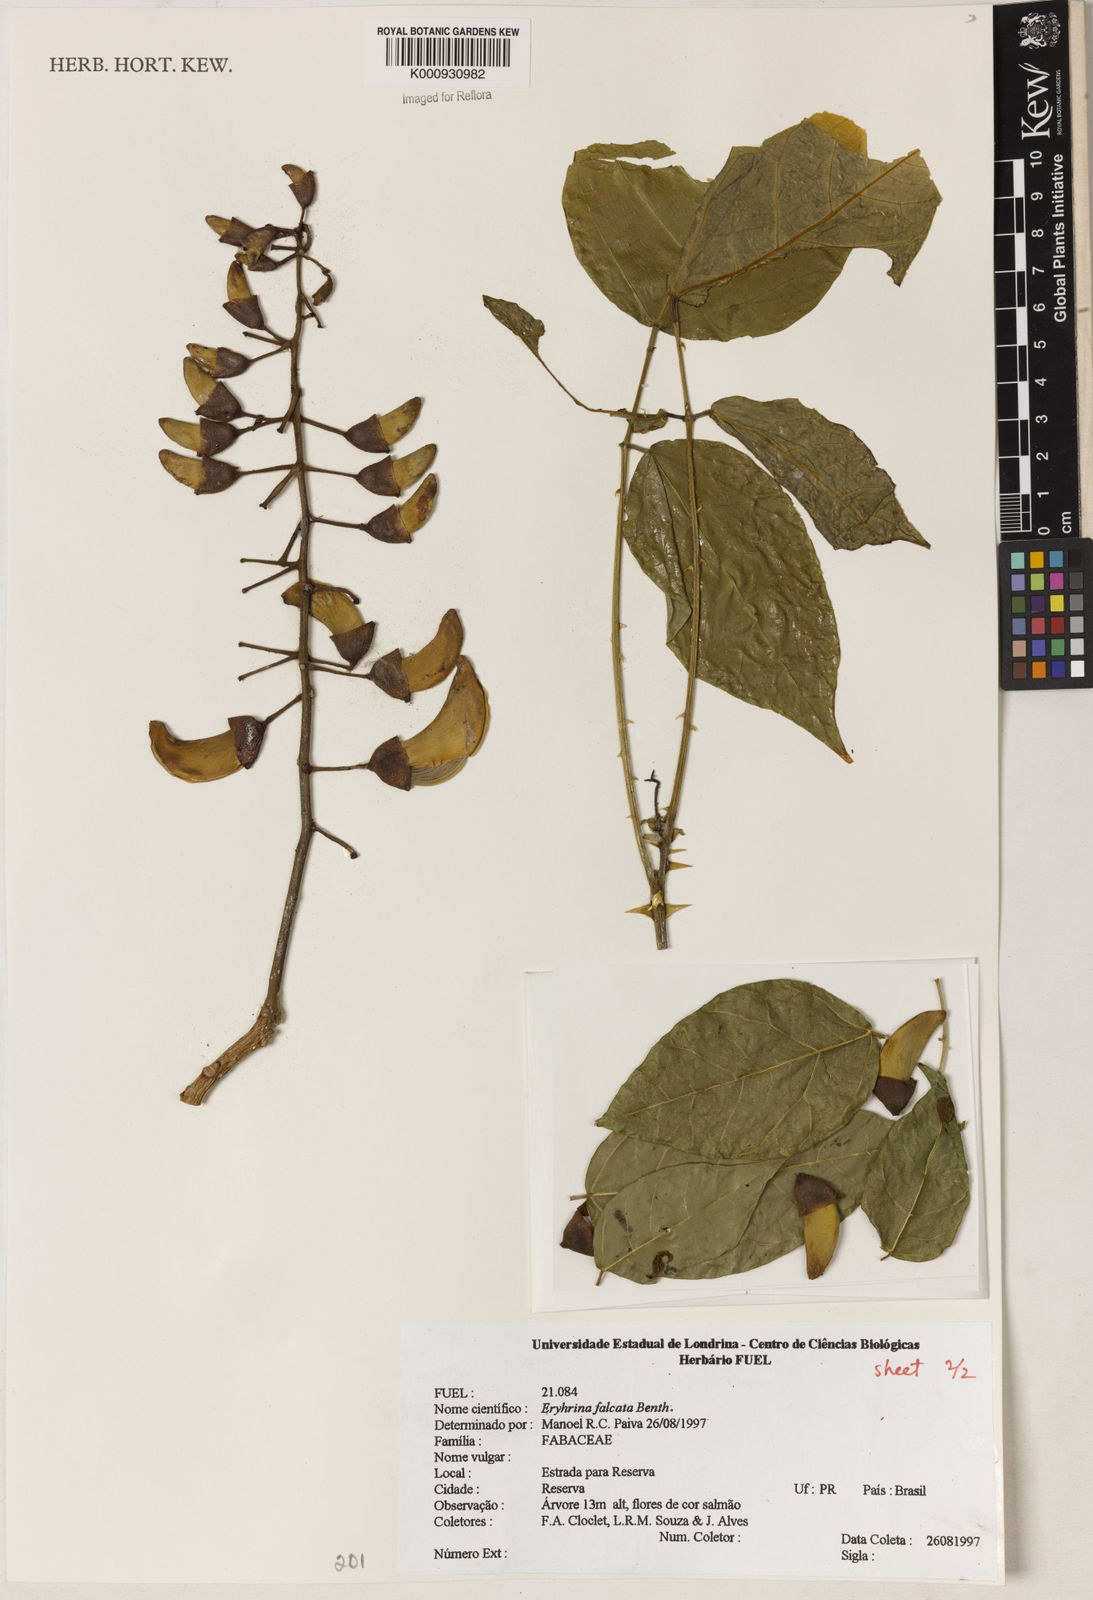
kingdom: Plantae
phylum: Tracheophyta
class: Magnoliopsida
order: Fabales
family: Fabaceae
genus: Erythrina
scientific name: Erythrina falcata
